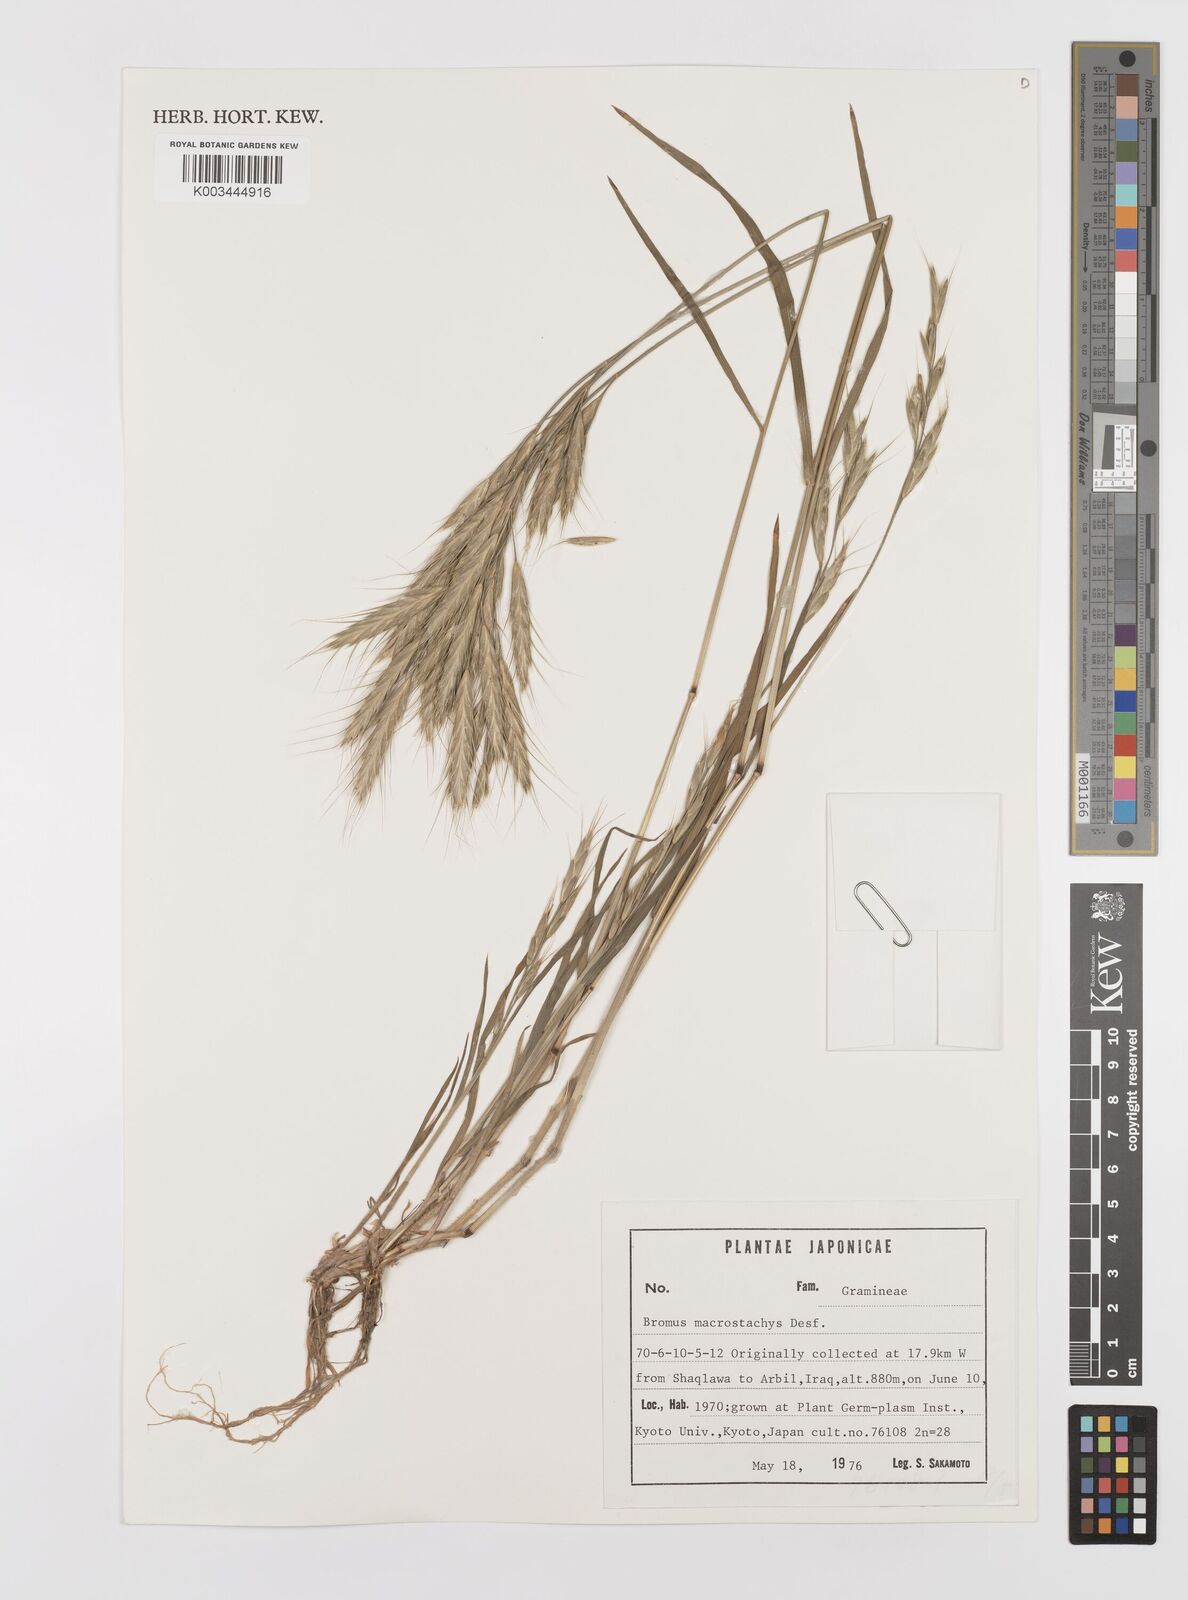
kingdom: Plantae
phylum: Tracheophyta
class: Liliopsida
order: Poales
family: Poaceae
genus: Bromus
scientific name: Bromus lanceolatus
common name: Mediterranean brome
